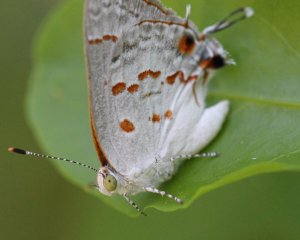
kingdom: Animalia
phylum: Arthropoda
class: Insecta
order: Lepidoptera
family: Lycaenidae
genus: Ministrymon
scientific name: Ministrymon clytie
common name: Clytie Ministreak
